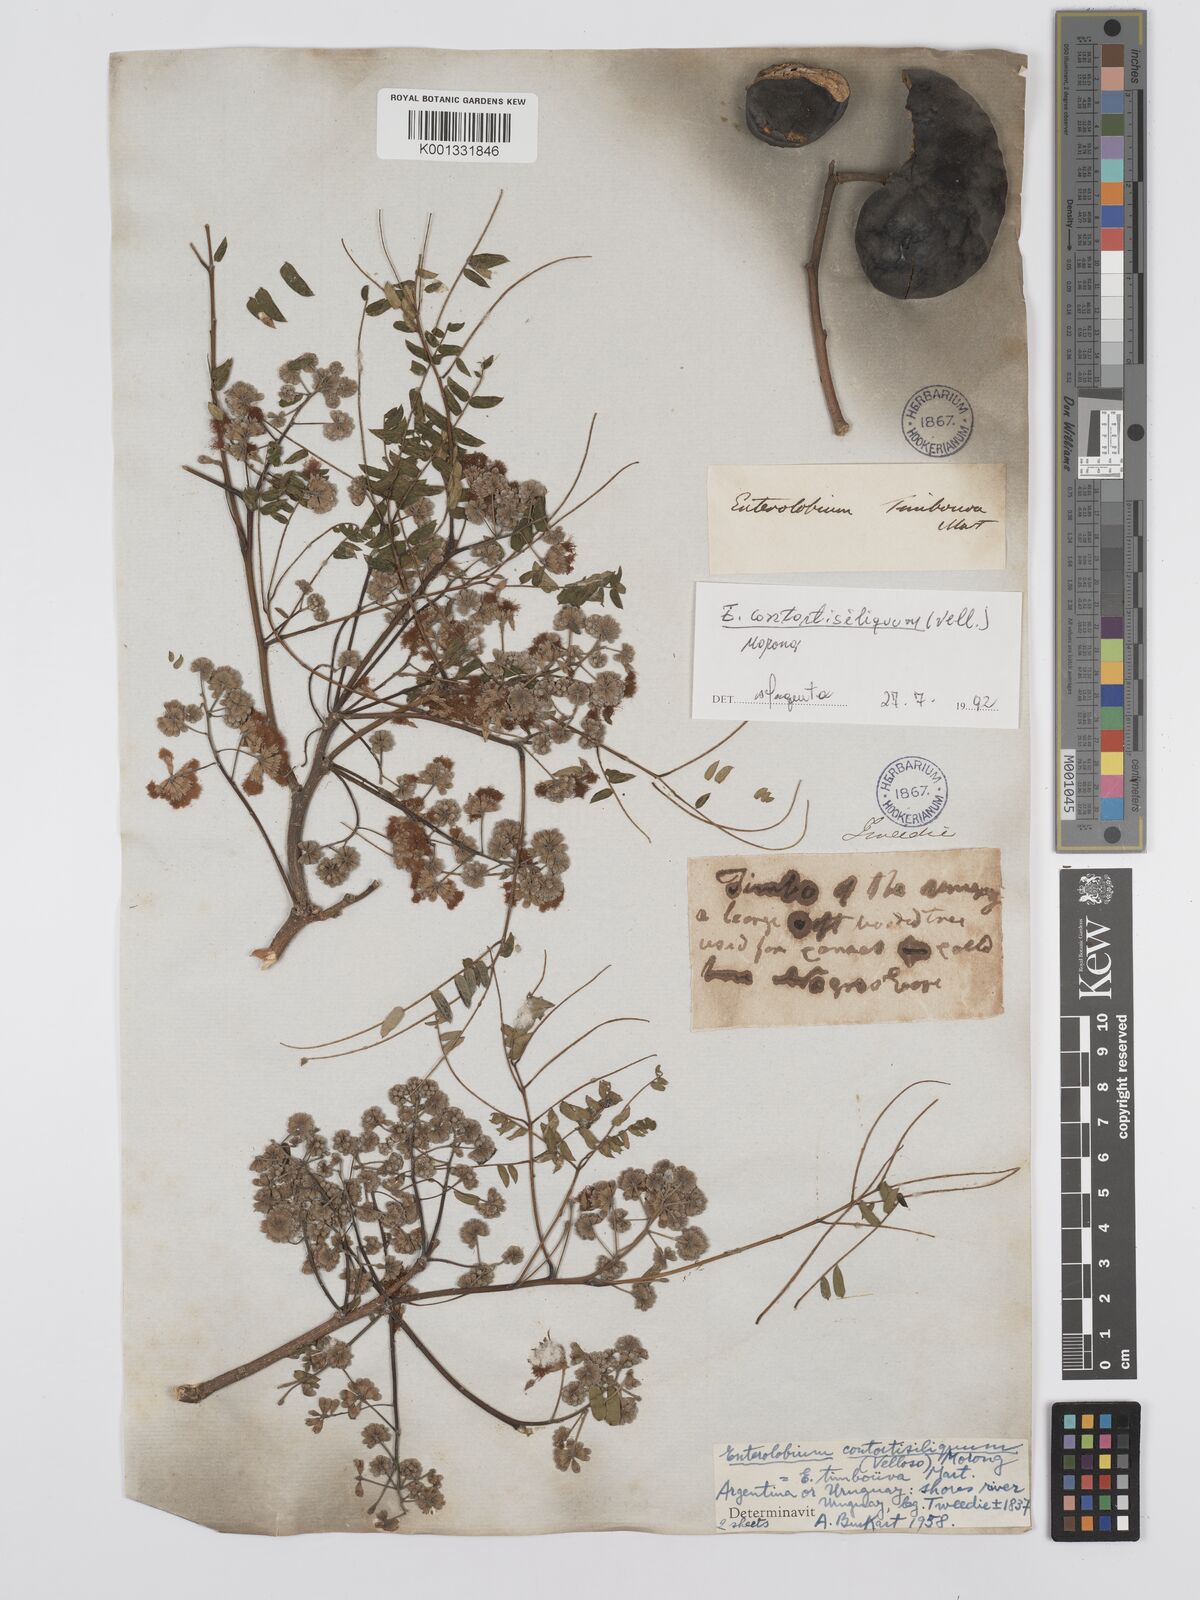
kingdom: Plantae
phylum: Tracheophyta
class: Magnoliopsida
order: Fabales
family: Fabaceae
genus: Enterolobium
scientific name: Enterolobium contortisiliquum
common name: Pacara earpod tree
